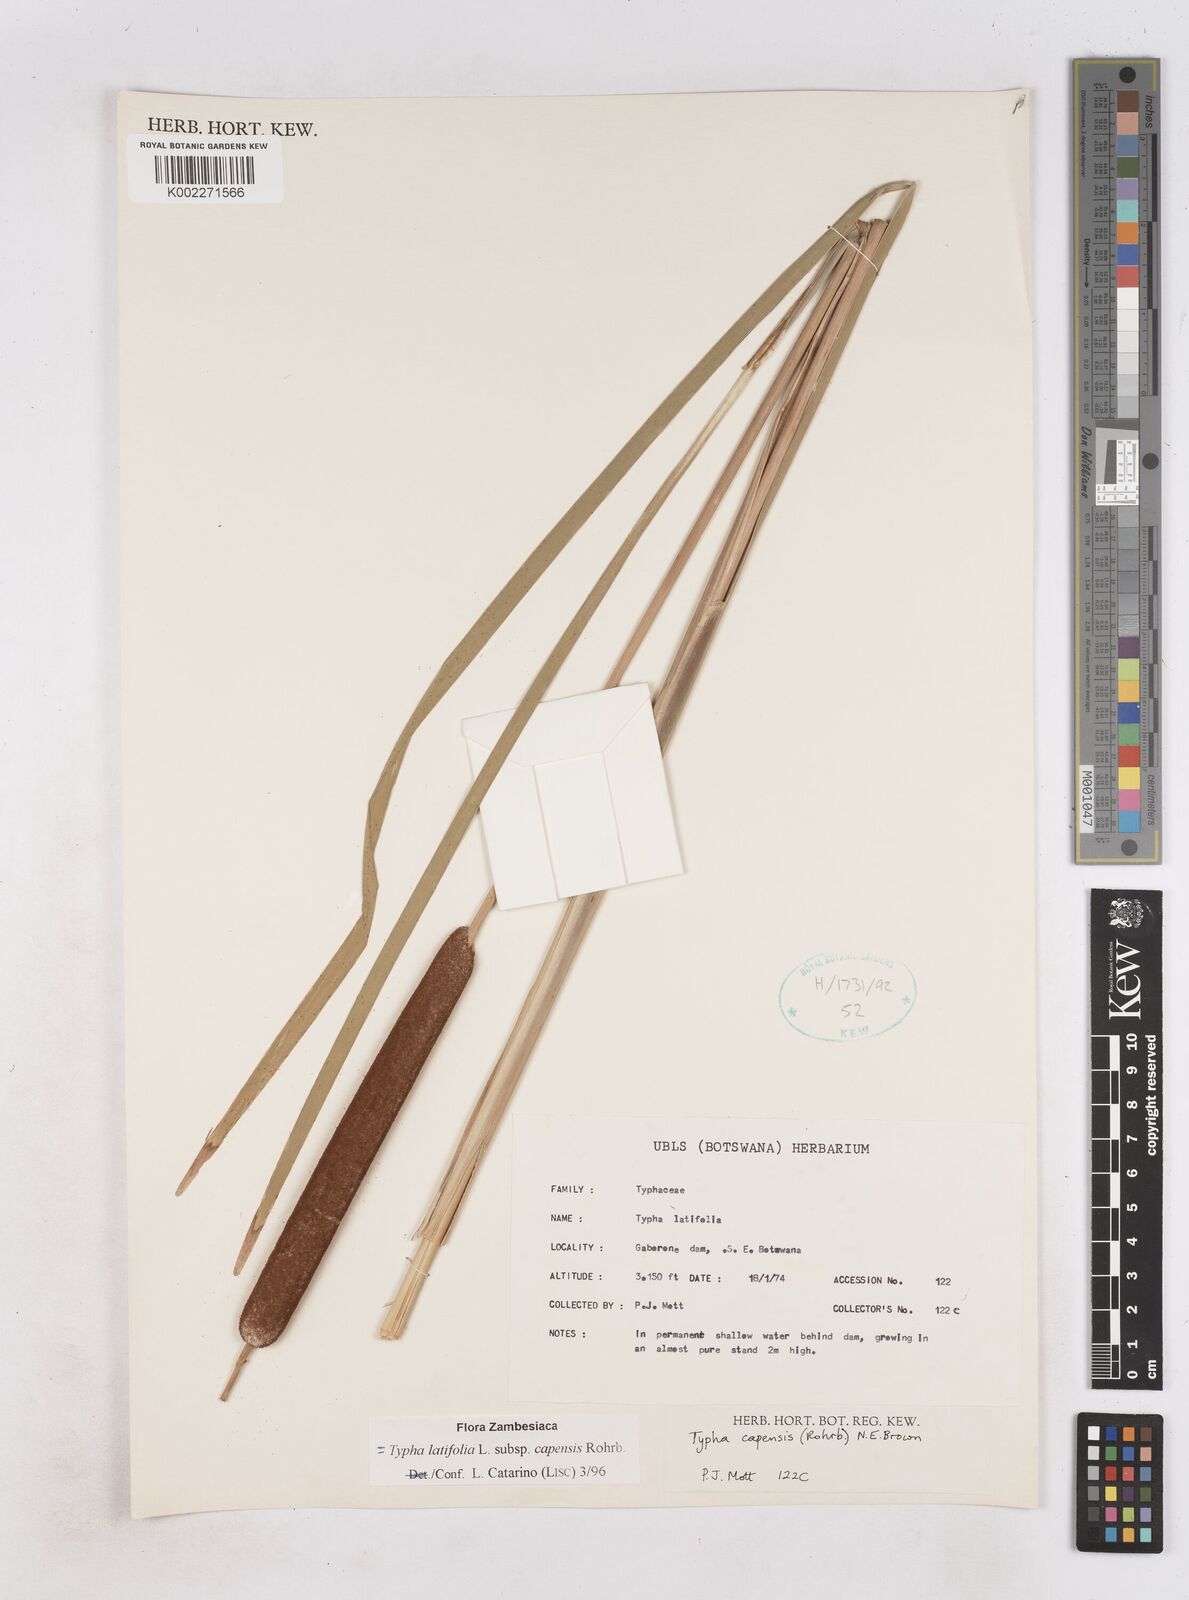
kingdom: Plantae
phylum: Tracheophyta
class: Liliopsida
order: Poales
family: Typhaceae
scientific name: Typhaceae
